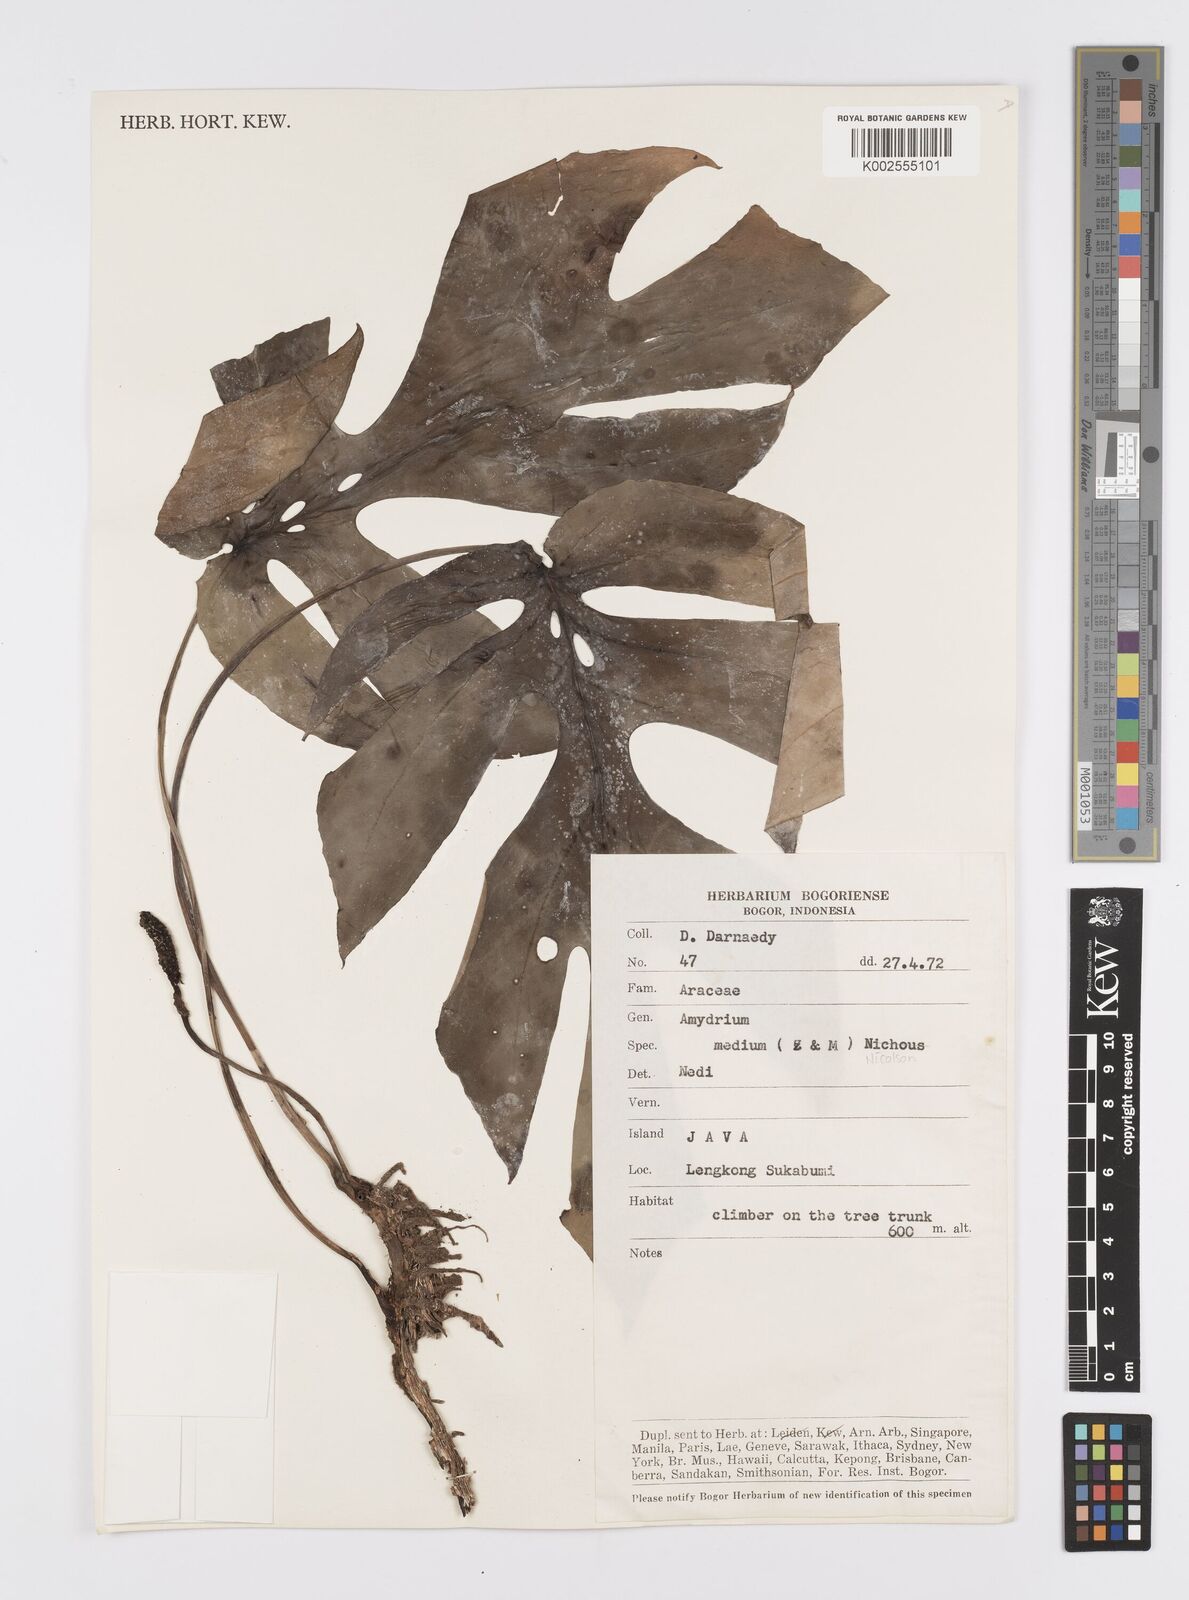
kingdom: Plantae
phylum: Tracheophyta
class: Liliopsida
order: Alismatales
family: Araceae
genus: Amydrium
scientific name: Amydrium medium
